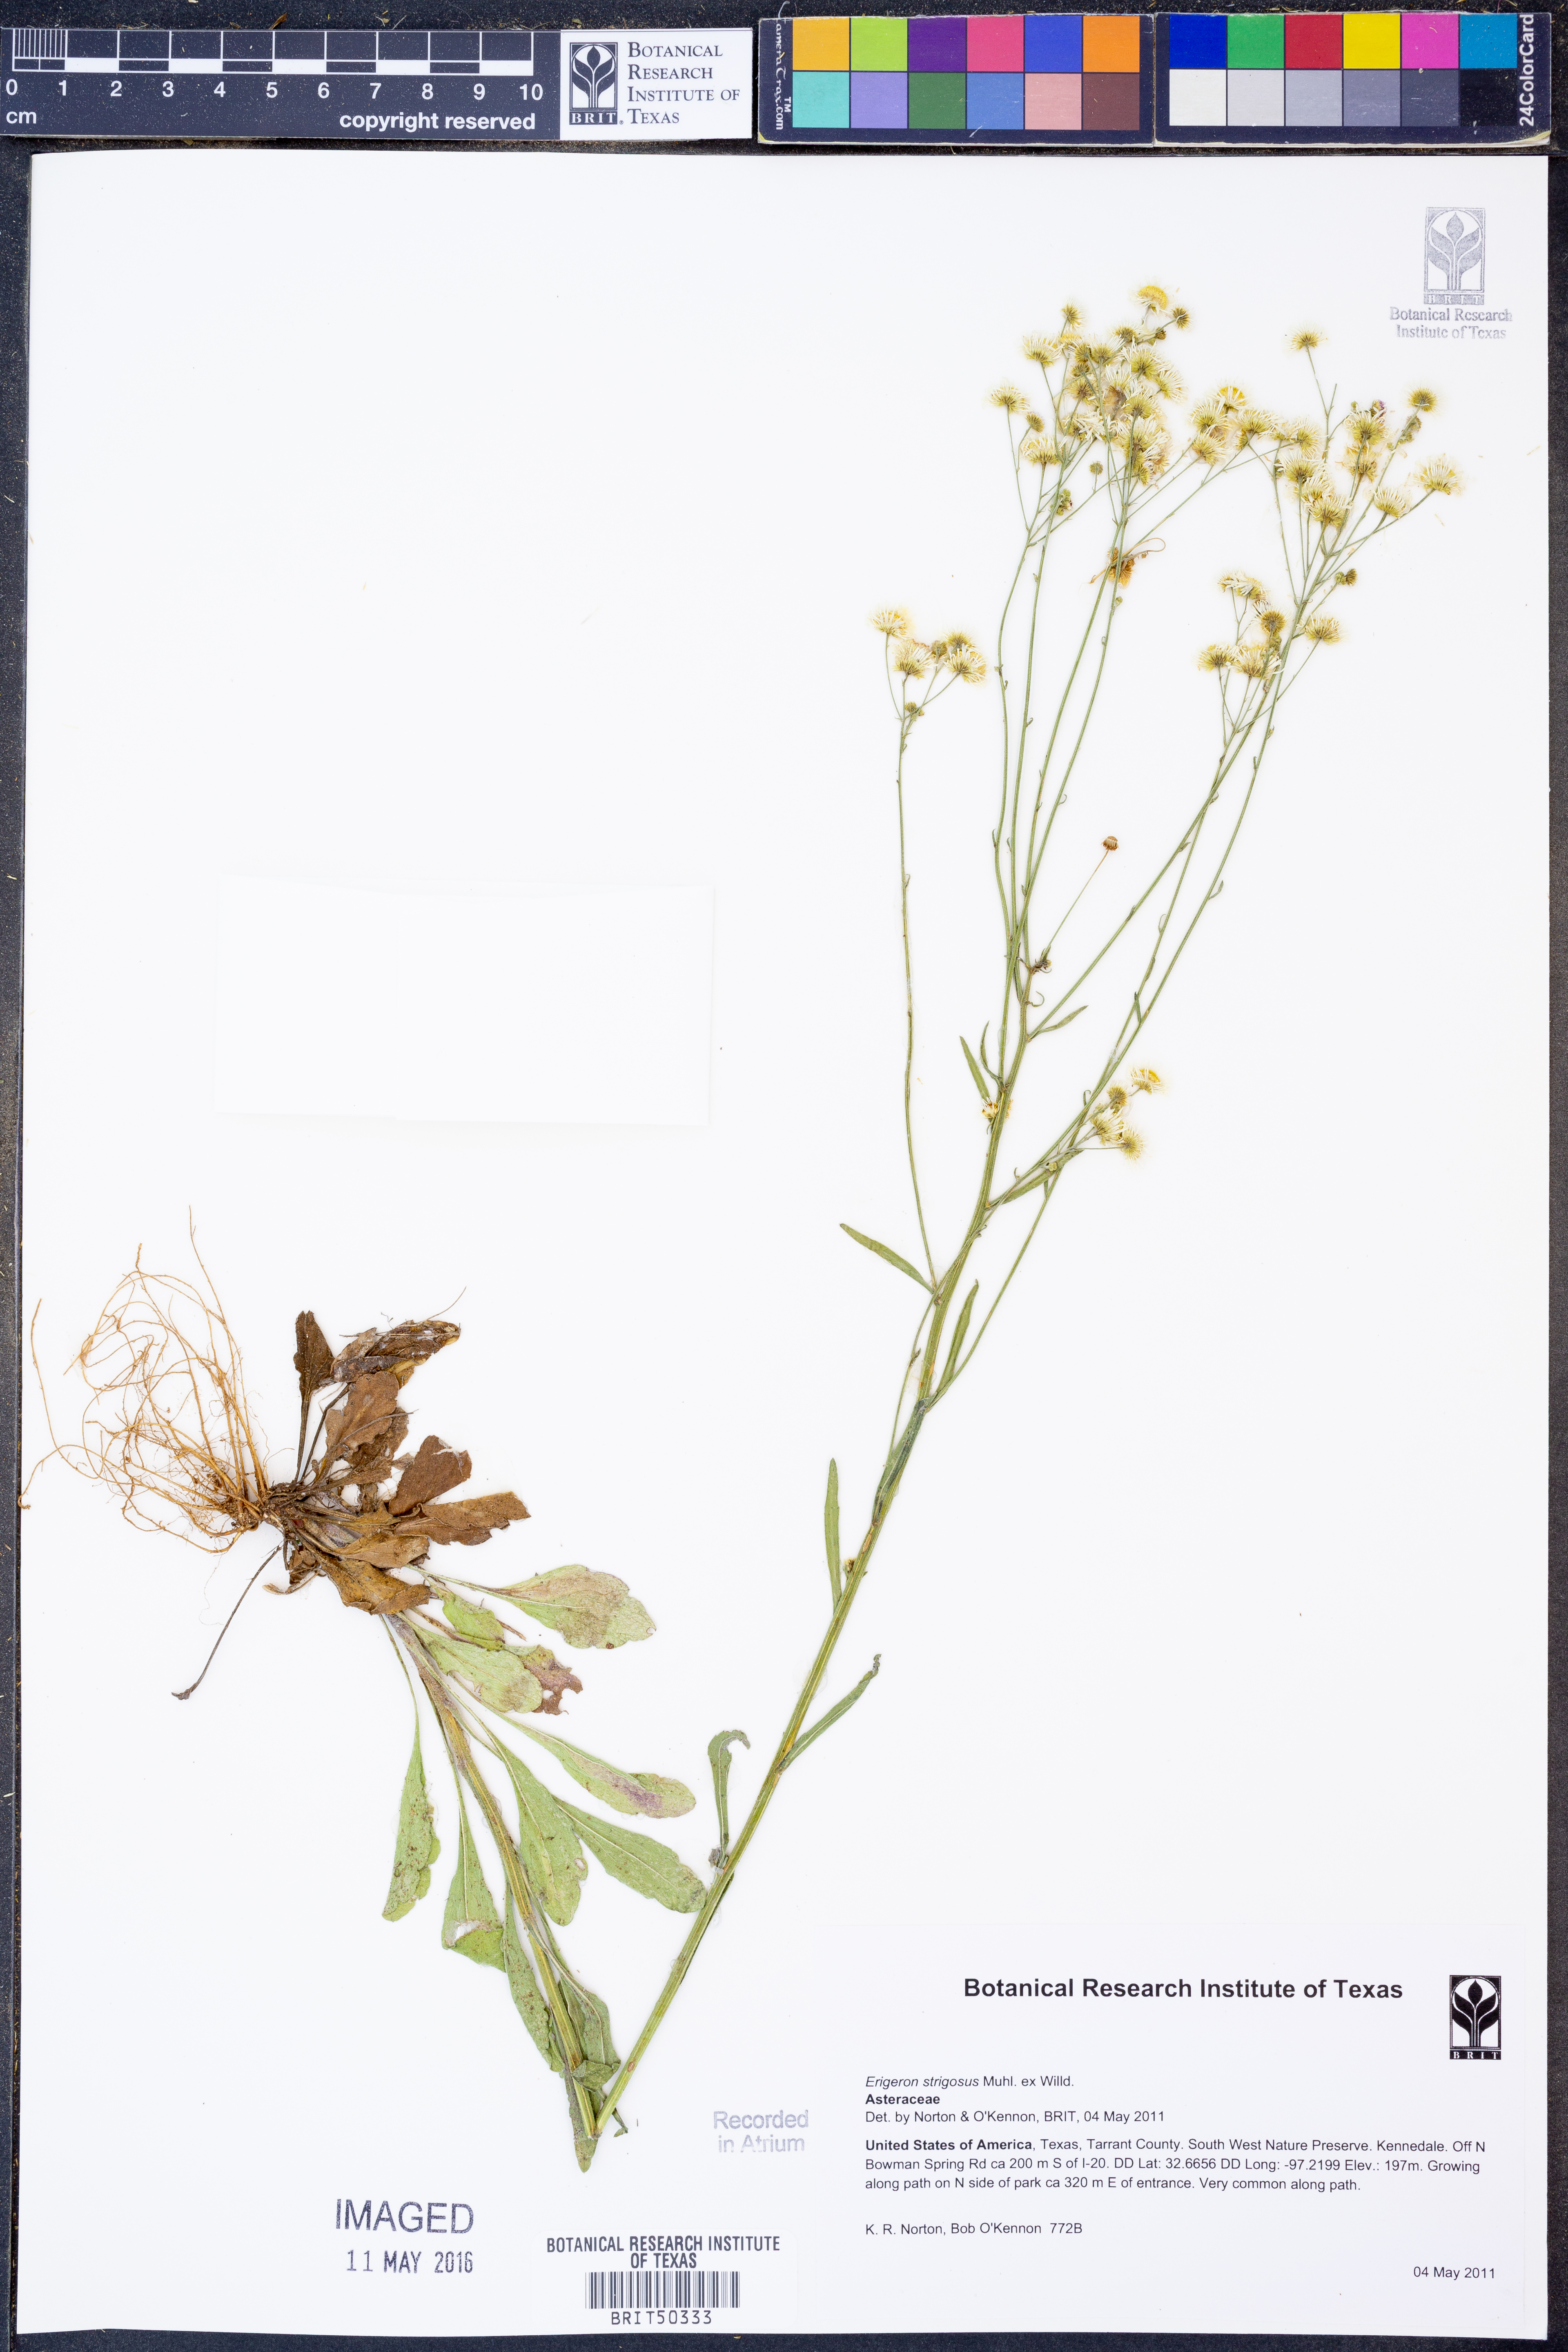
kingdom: Plantae
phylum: Tracheophyta
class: Magnoliopsida
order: Asterales
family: Asteraceae
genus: Erigeron
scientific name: Erigeron strigosus
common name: Common eastern fleabane
